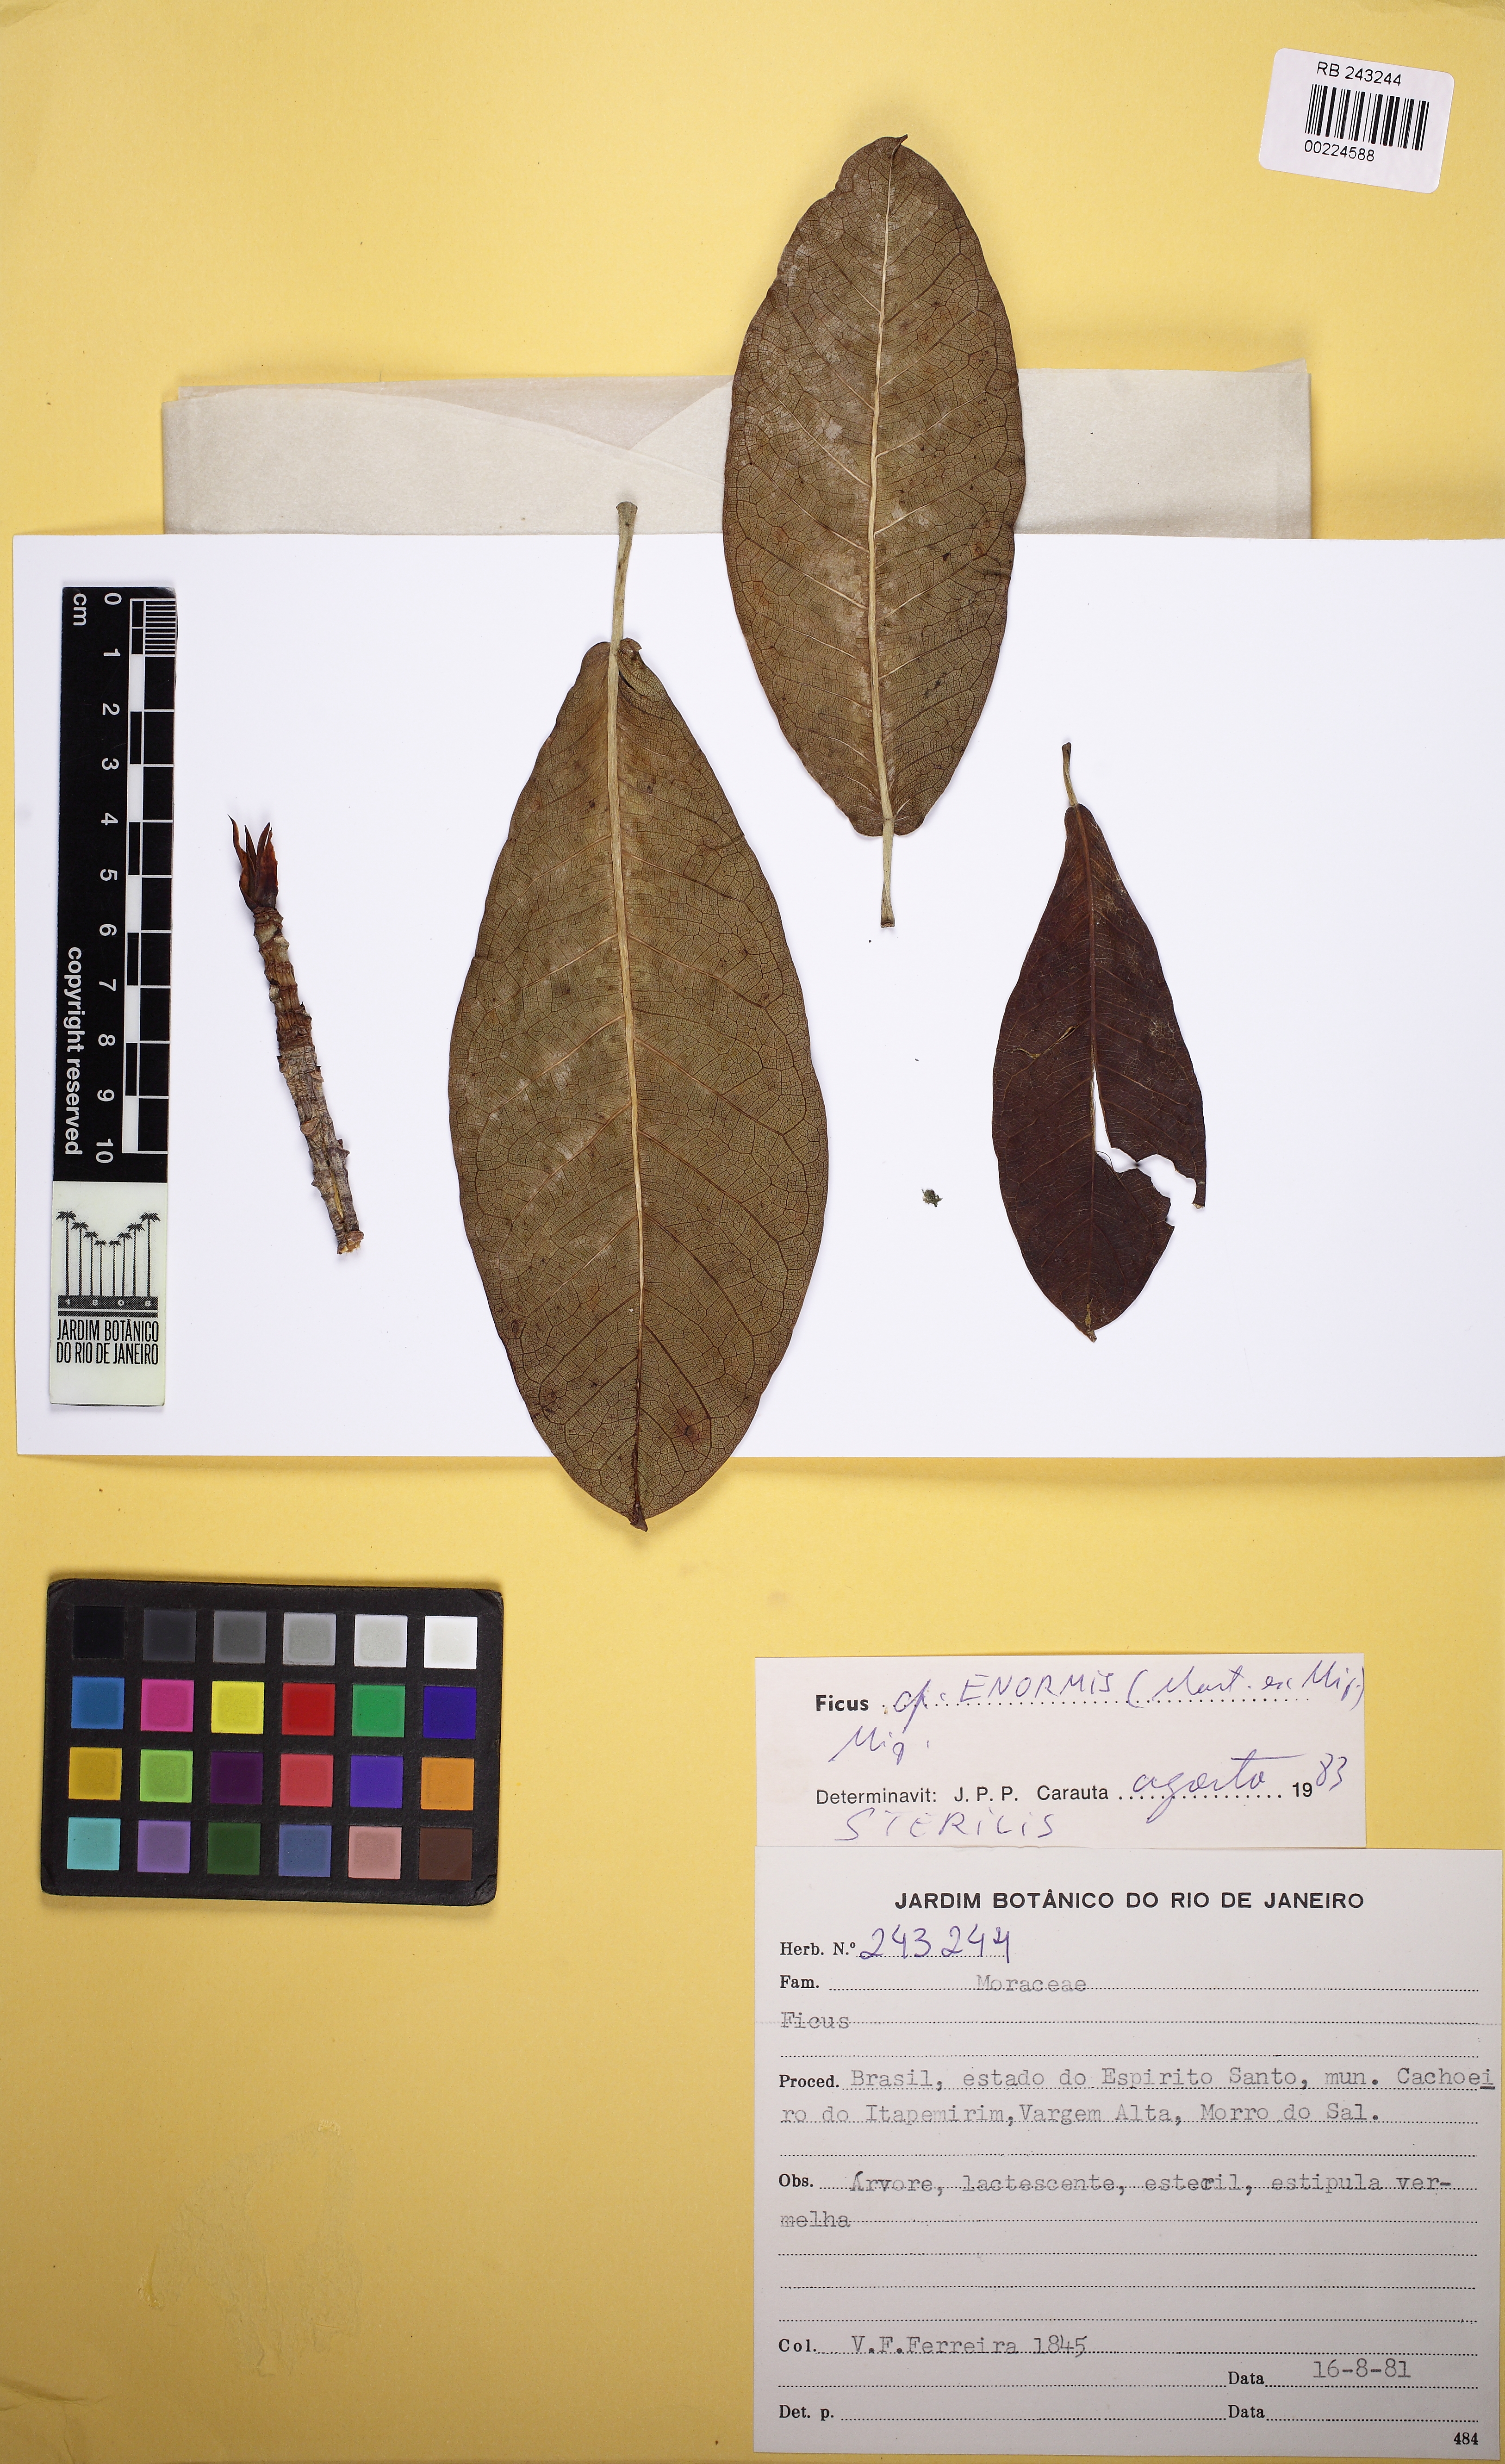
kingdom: Plantae
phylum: Tracheophyta
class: Magnoliopsida
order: Rosales
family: Moraceae
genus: Ficus
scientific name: Ficus mexiae
